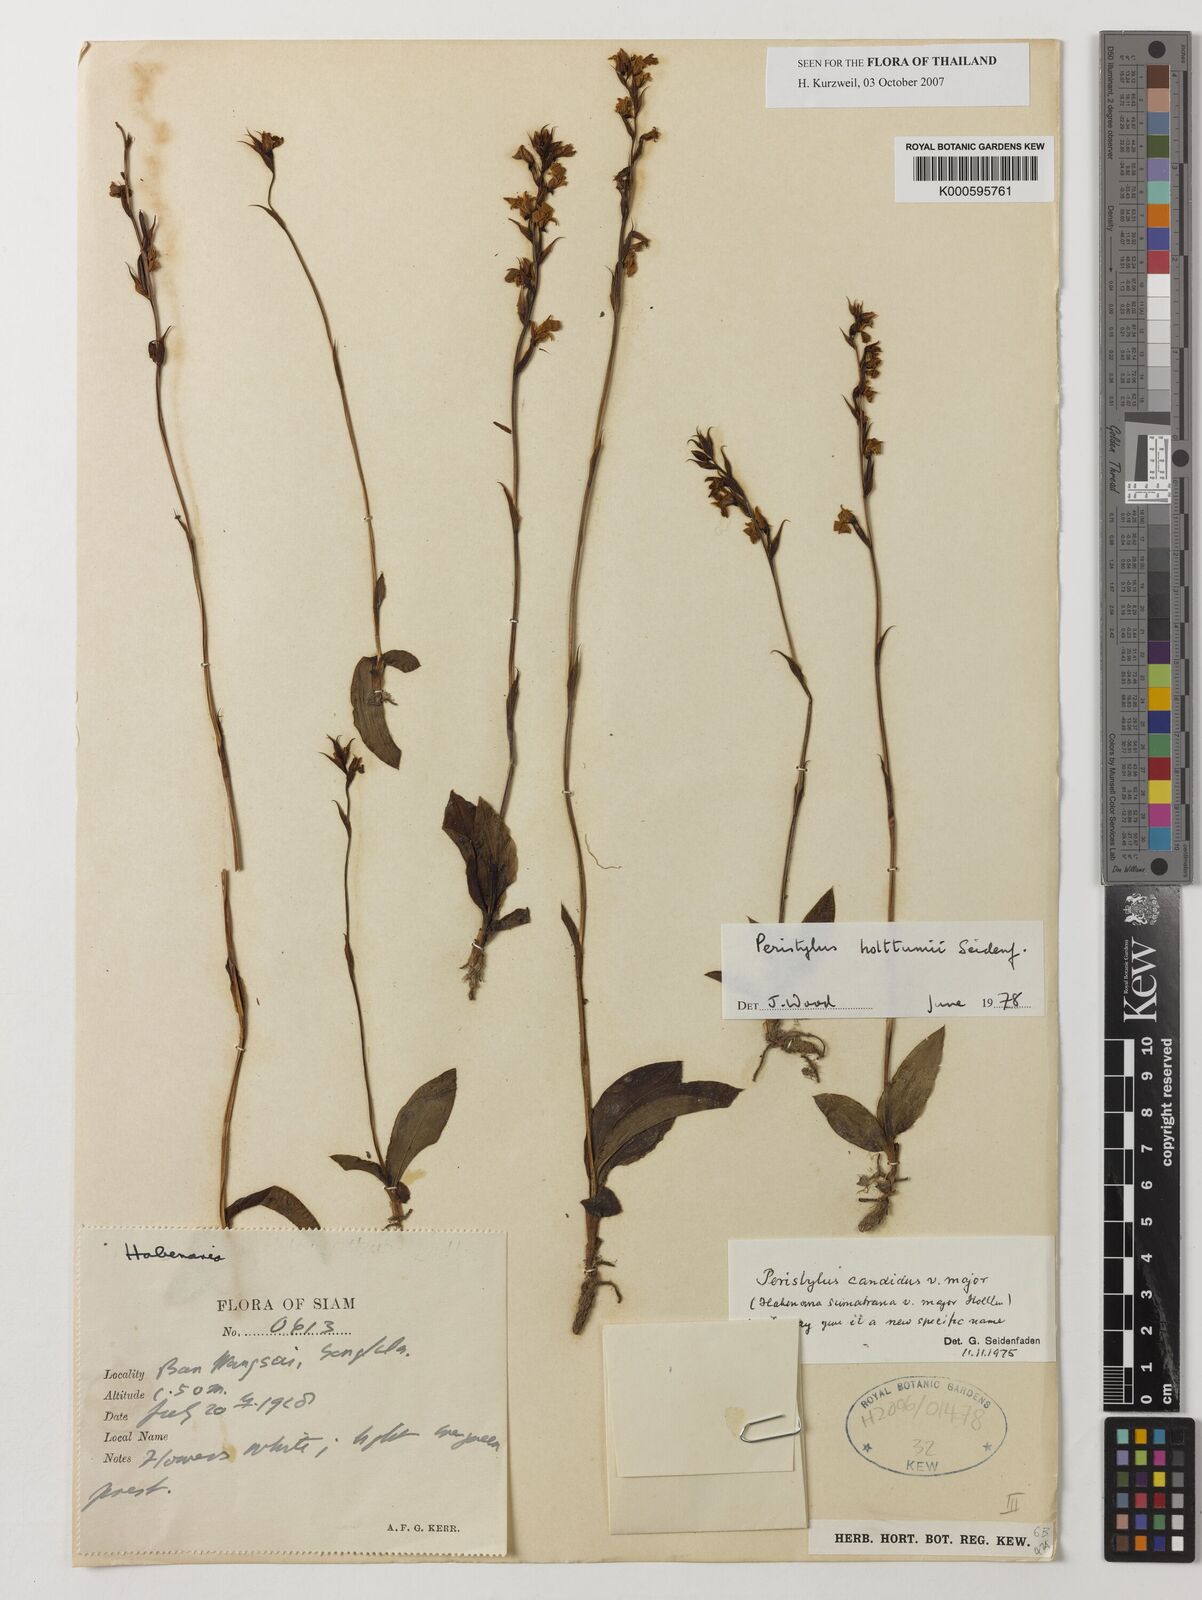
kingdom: Plantae
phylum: Tracheophyta
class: Liliopsida
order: Asparagales
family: Orchidaceae
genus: Peristylus
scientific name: Peristylus holttumii
